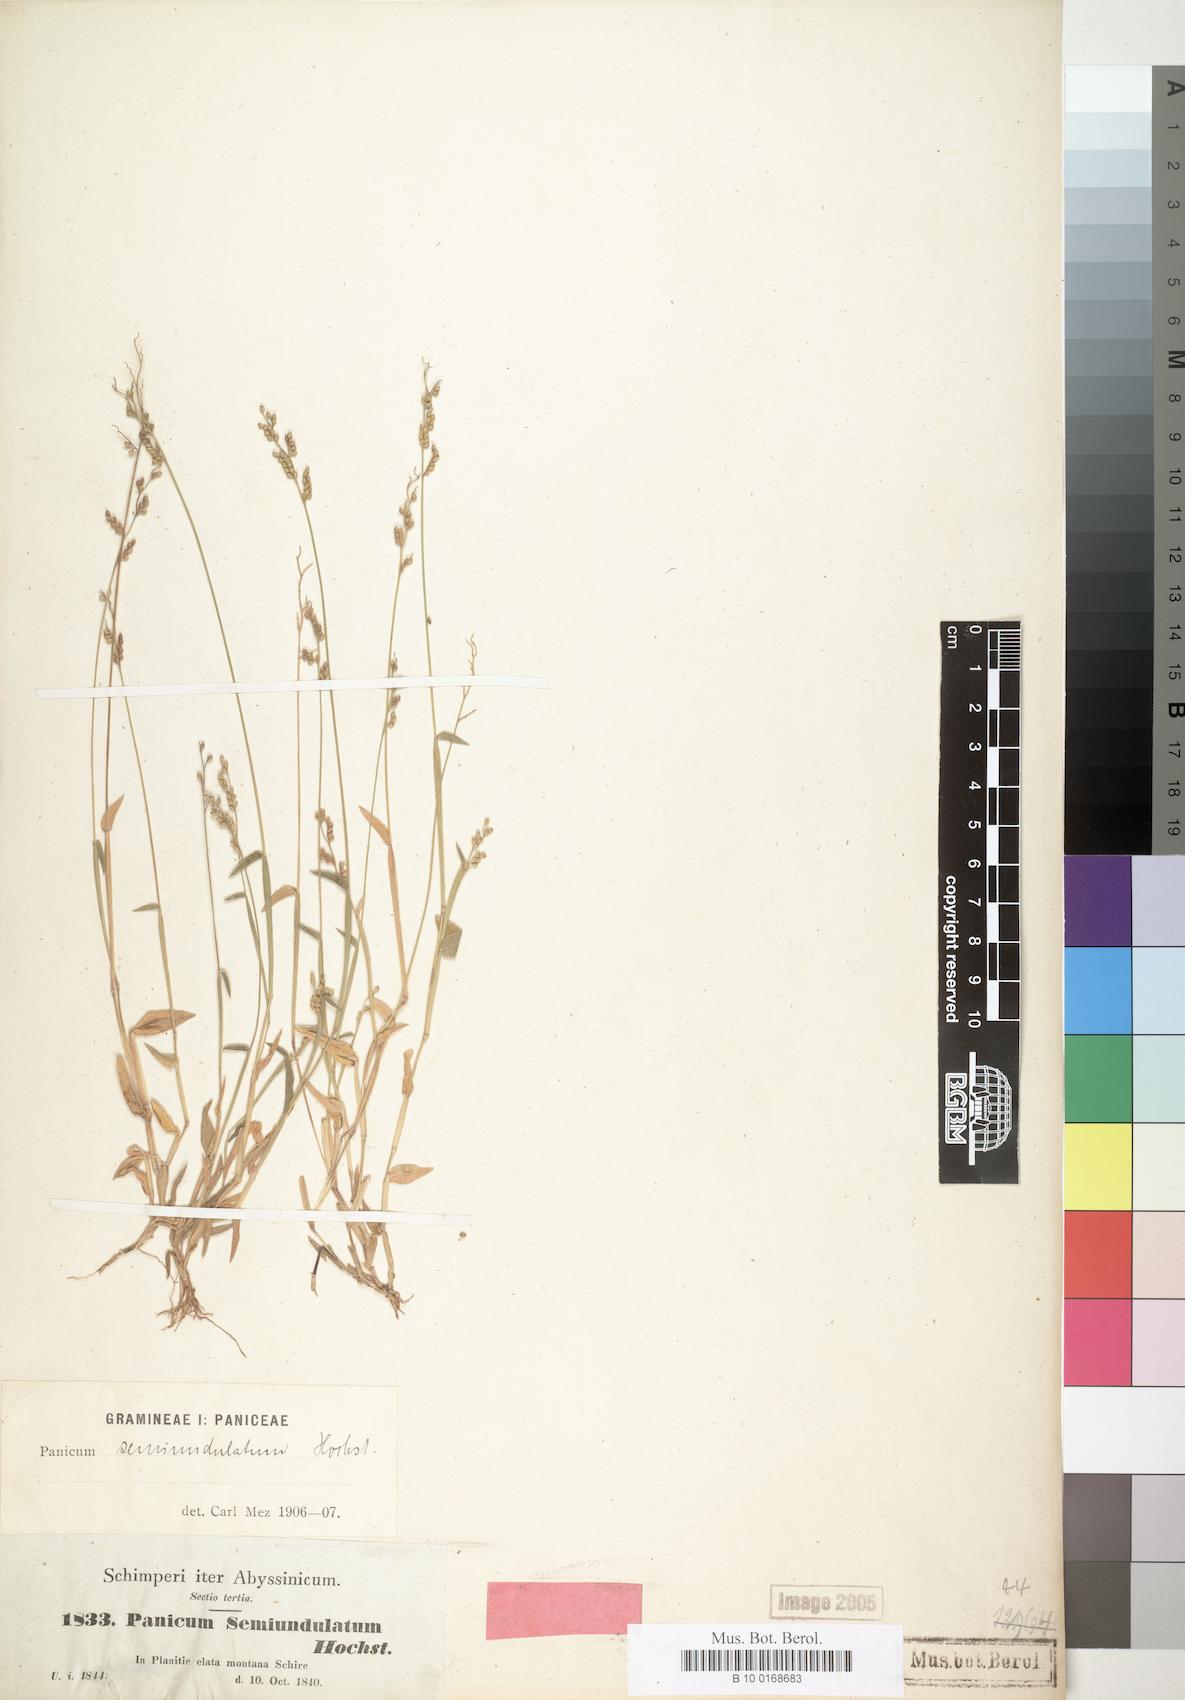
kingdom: Plantae
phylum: Tracheophyta
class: Liliopsida
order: Poales
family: Poaceae
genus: Urochloa
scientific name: Urochloa semiundulata
